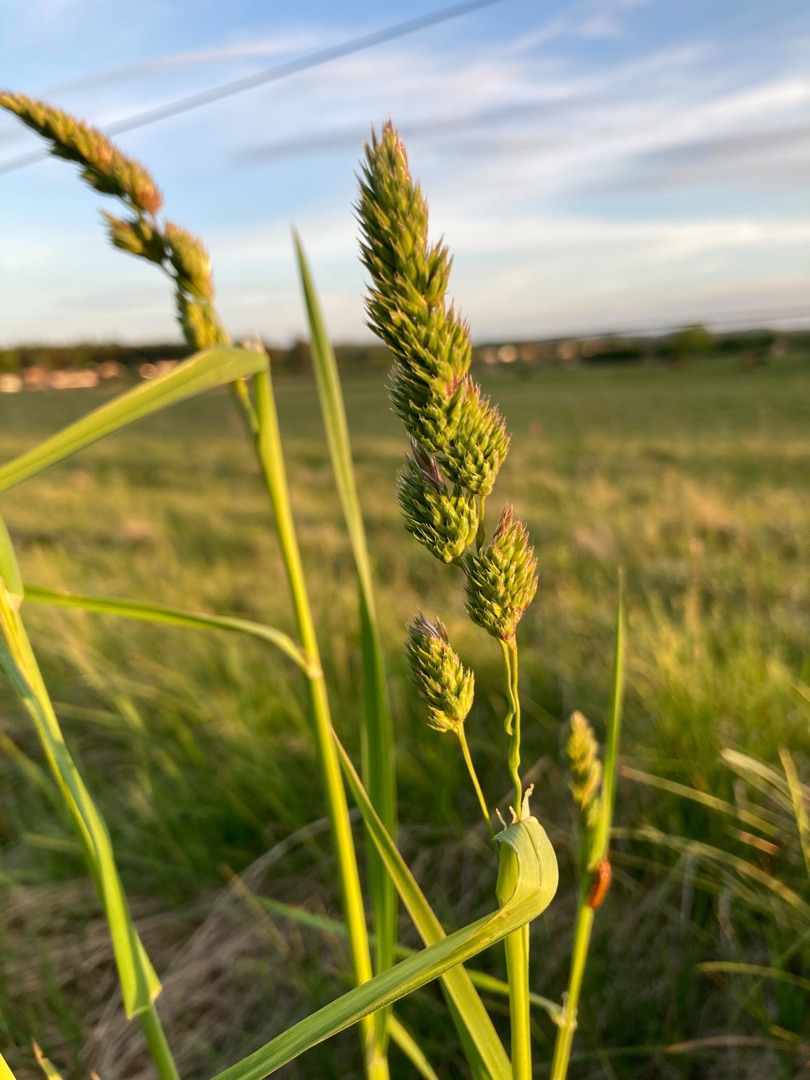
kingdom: Plantae
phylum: Tracheophyta
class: Liliopsida
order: Poales
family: Poaceae
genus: Dactylis
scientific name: Dactylis glomerata
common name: Almindelig hundegræs
